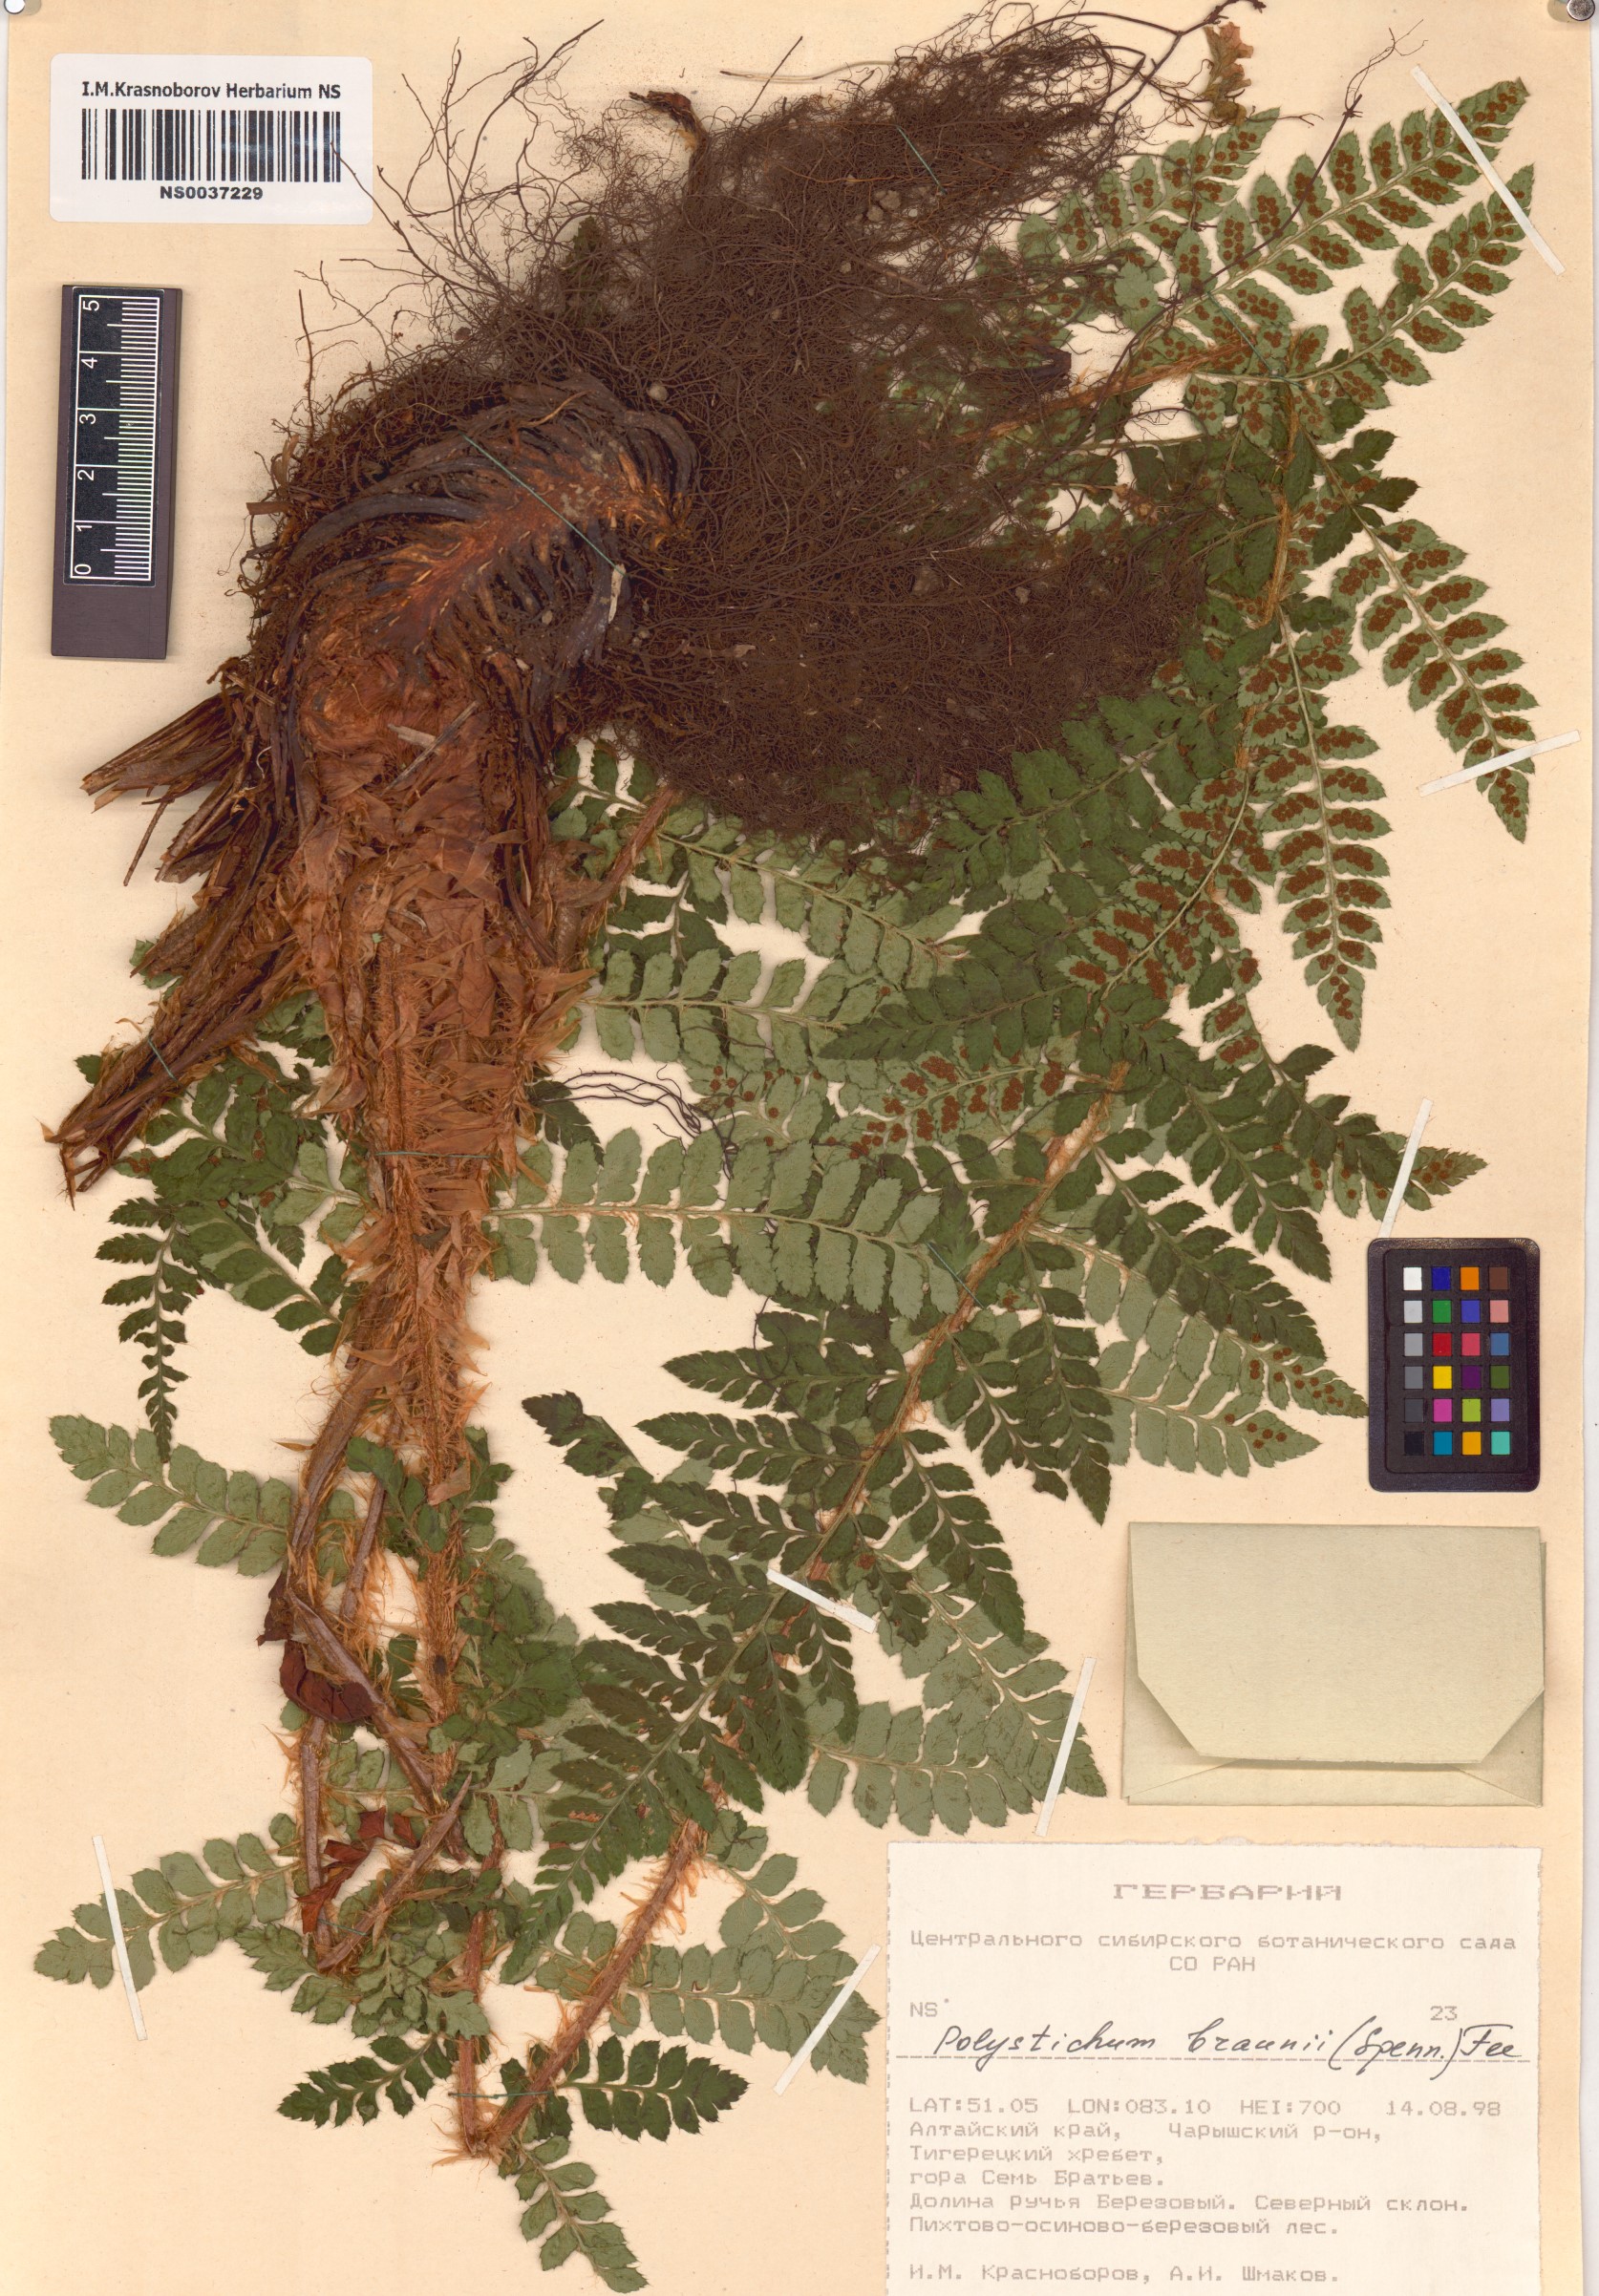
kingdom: Plantae
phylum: Tracheophyta
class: Polypodiopsida
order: Polypodiales
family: Dryopteridaceae
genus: Polystichum
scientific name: Polystichum braunii
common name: Braun's holly fern
